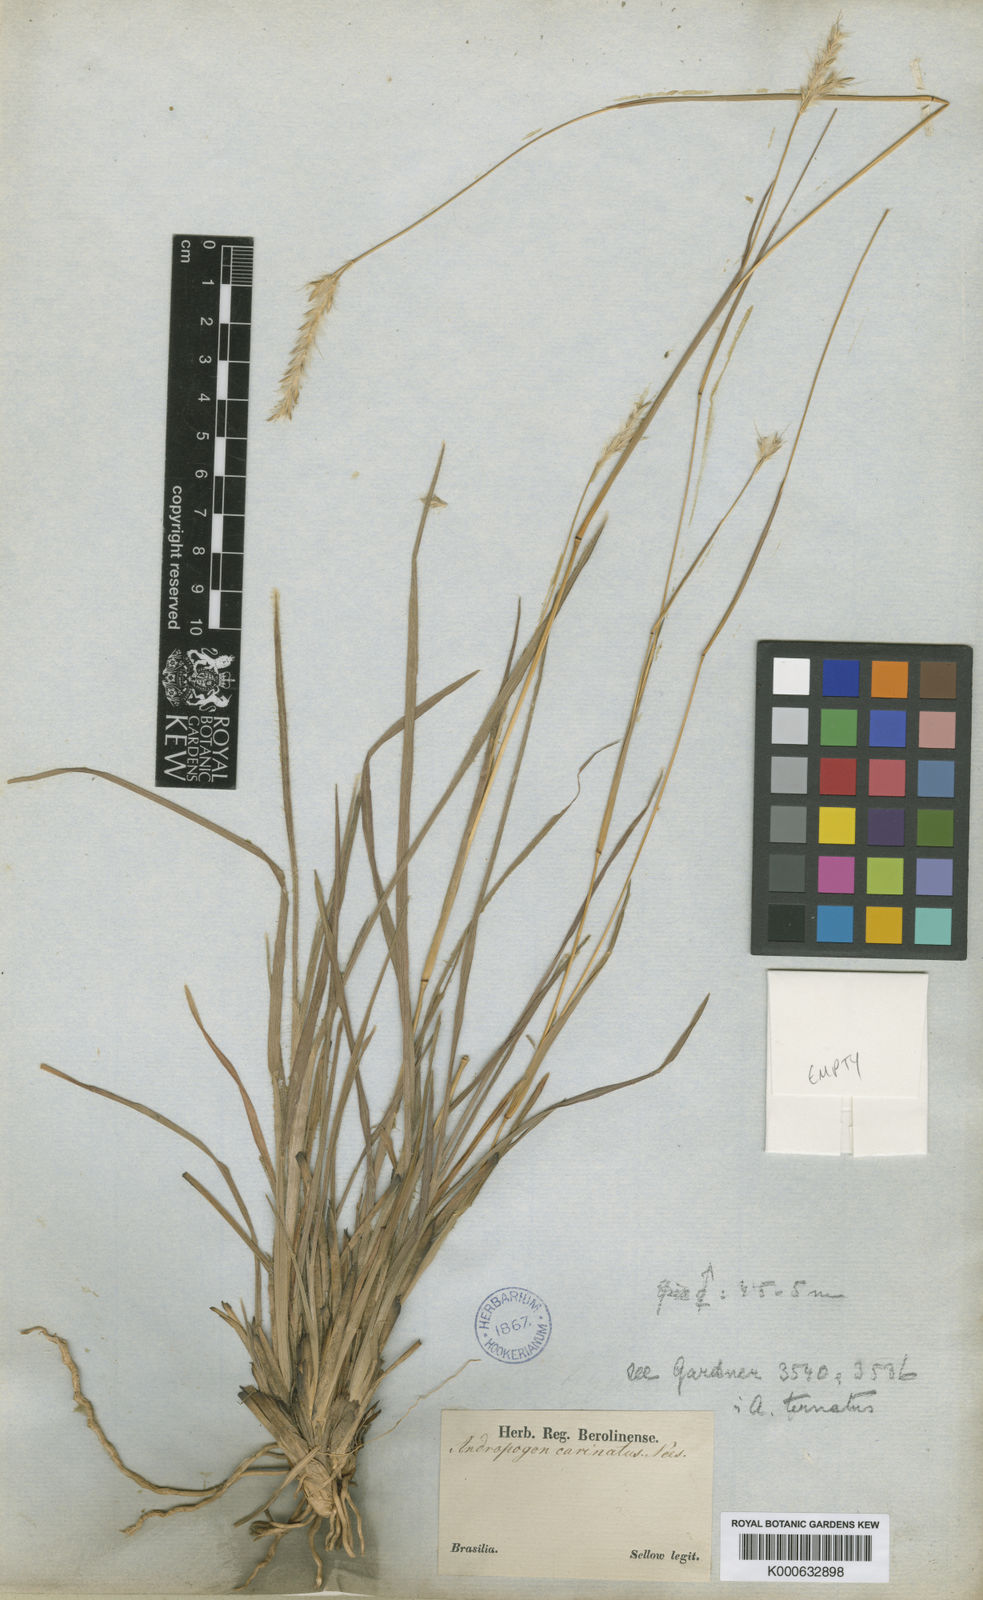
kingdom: Plantae
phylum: Tracheophyta
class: Liliopsida
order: Poales
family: Poaceae
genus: Andropogon
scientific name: Andropogon carinatus
